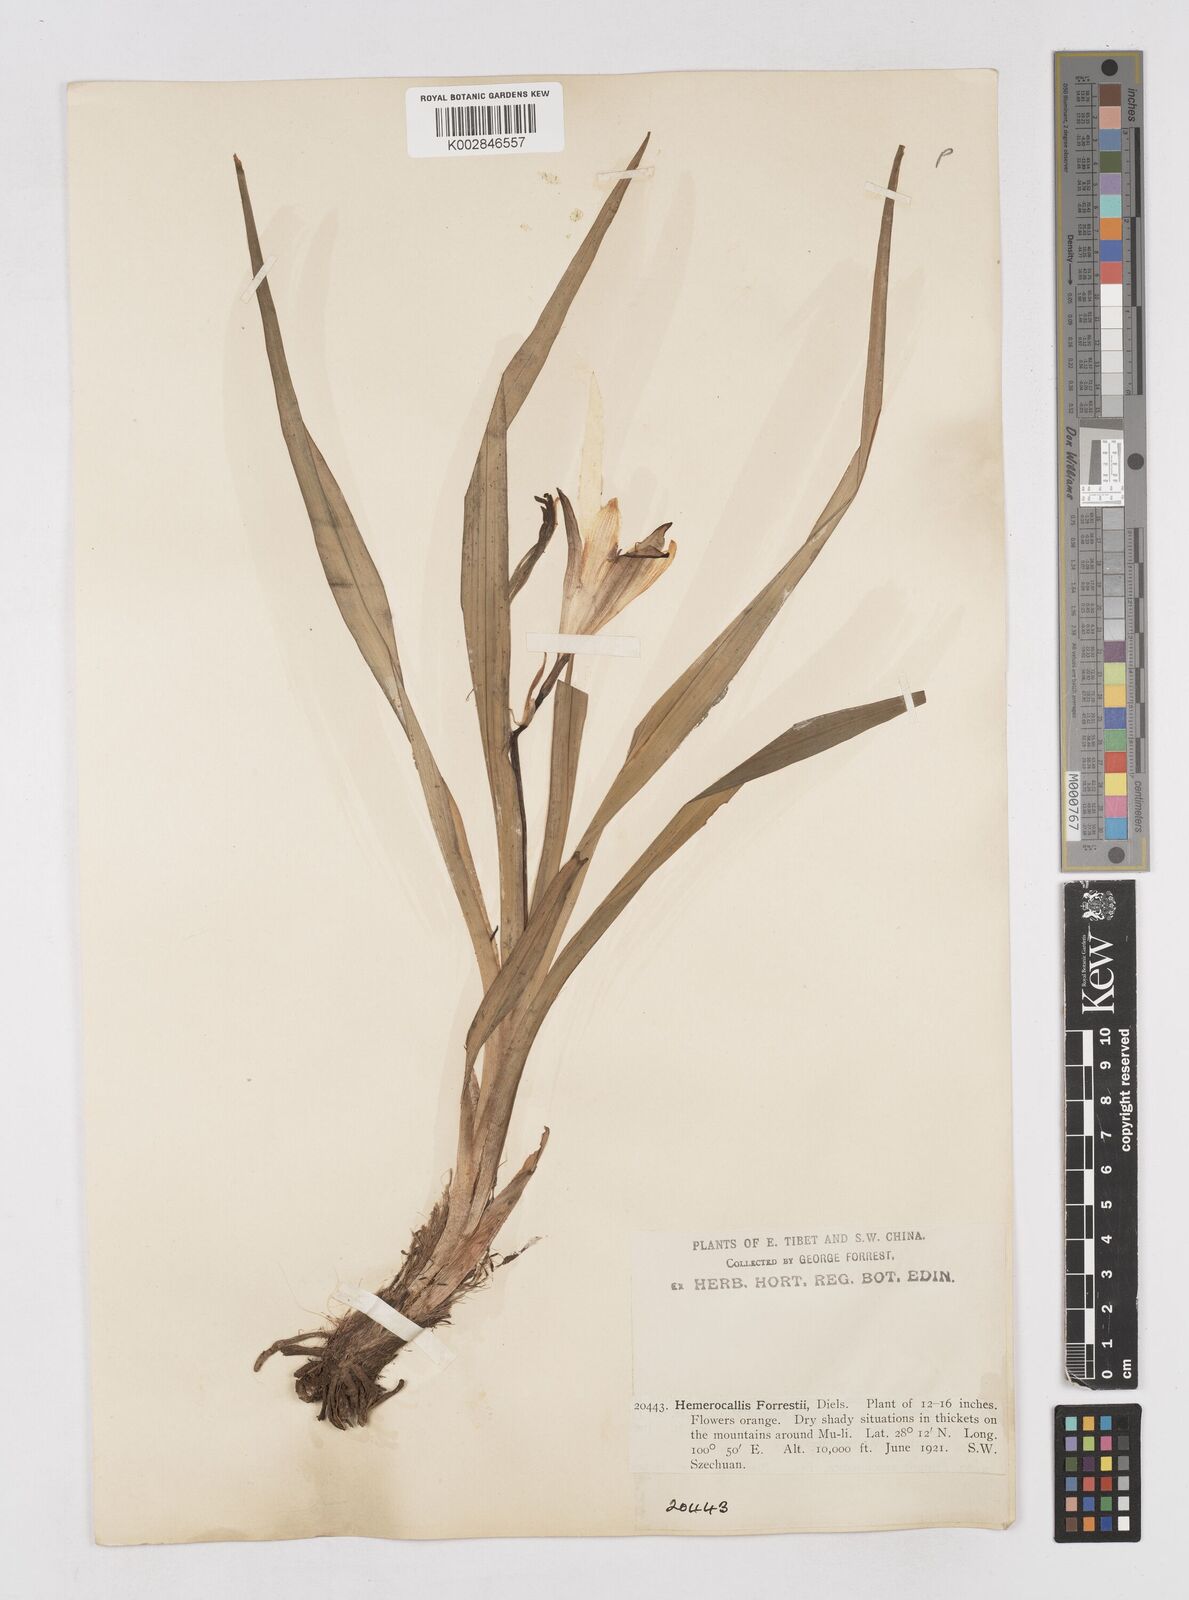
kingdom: Plantae
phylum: Tracheophyta
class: Liliopsida
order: Asparagales
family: Asphodelaceae
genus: Hemerocallis
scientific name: Hemerocallis forrestii
